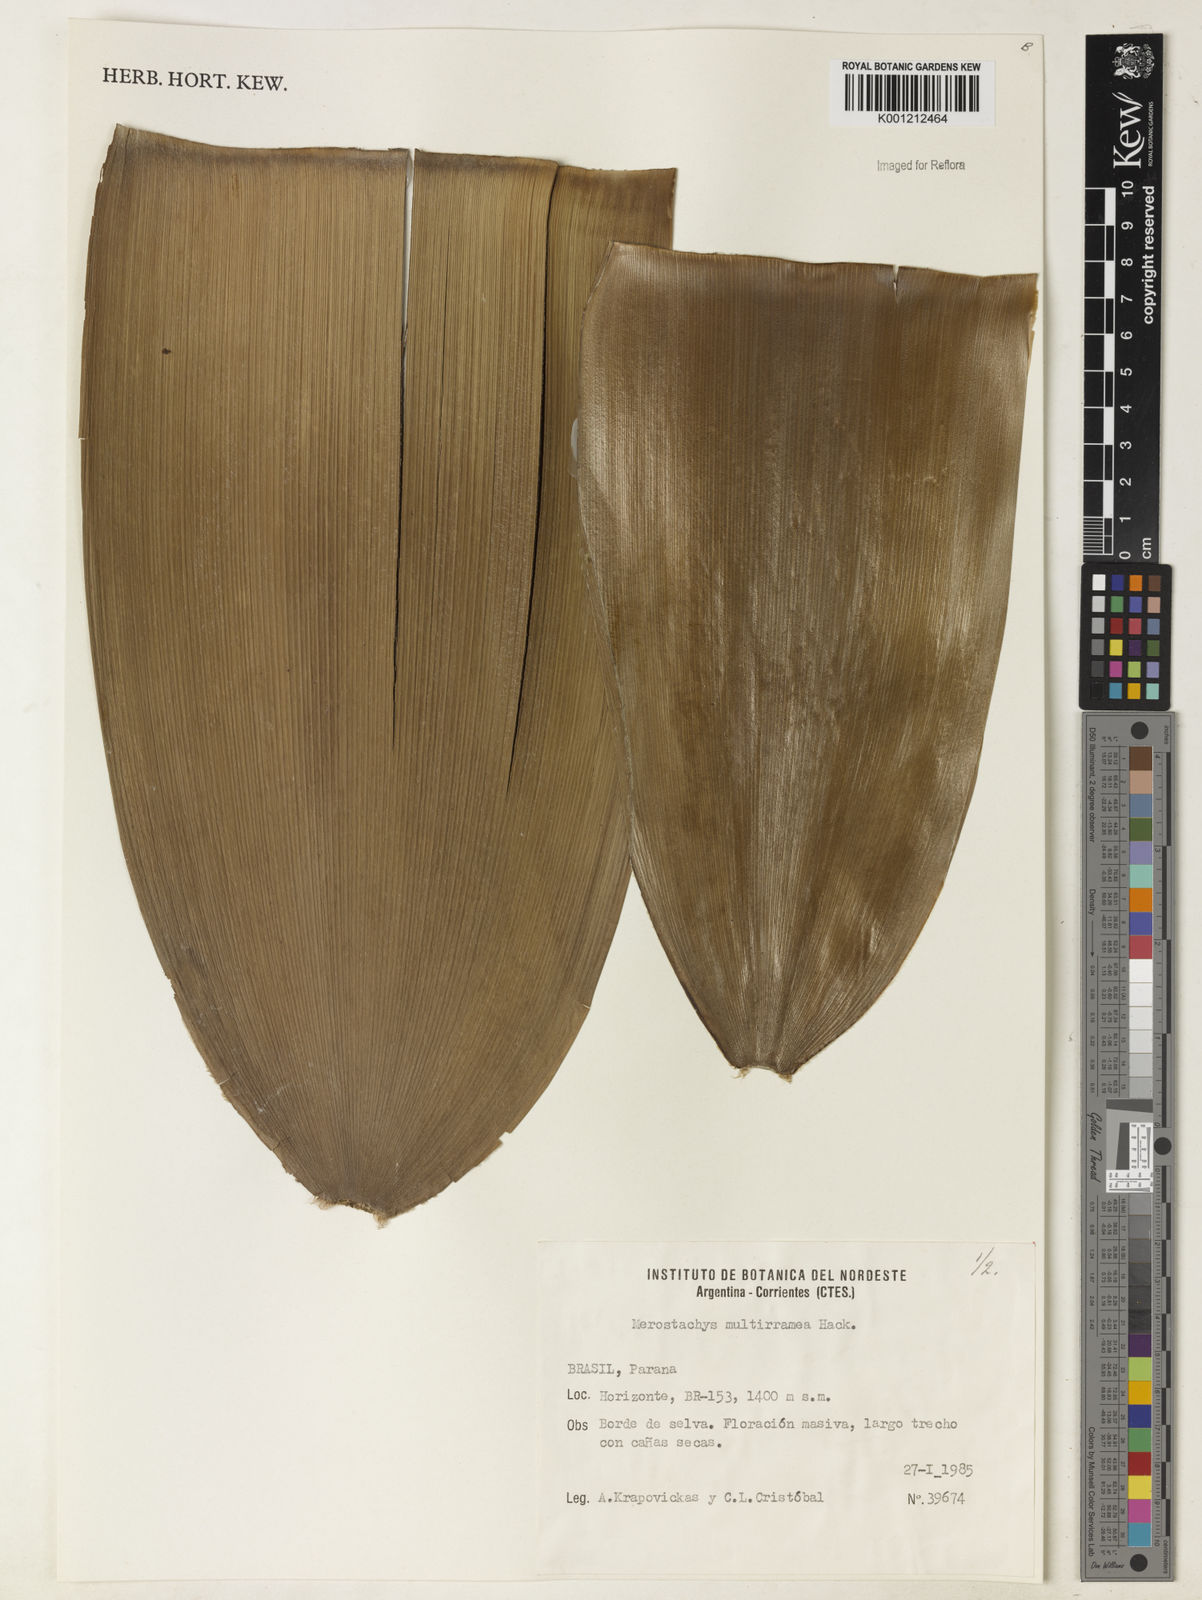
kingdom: Plantae
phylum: Tracheophyta
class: Liliopsida
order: Poales
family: Poaceae
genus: Merostachys
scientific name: Merostachys multiramea
